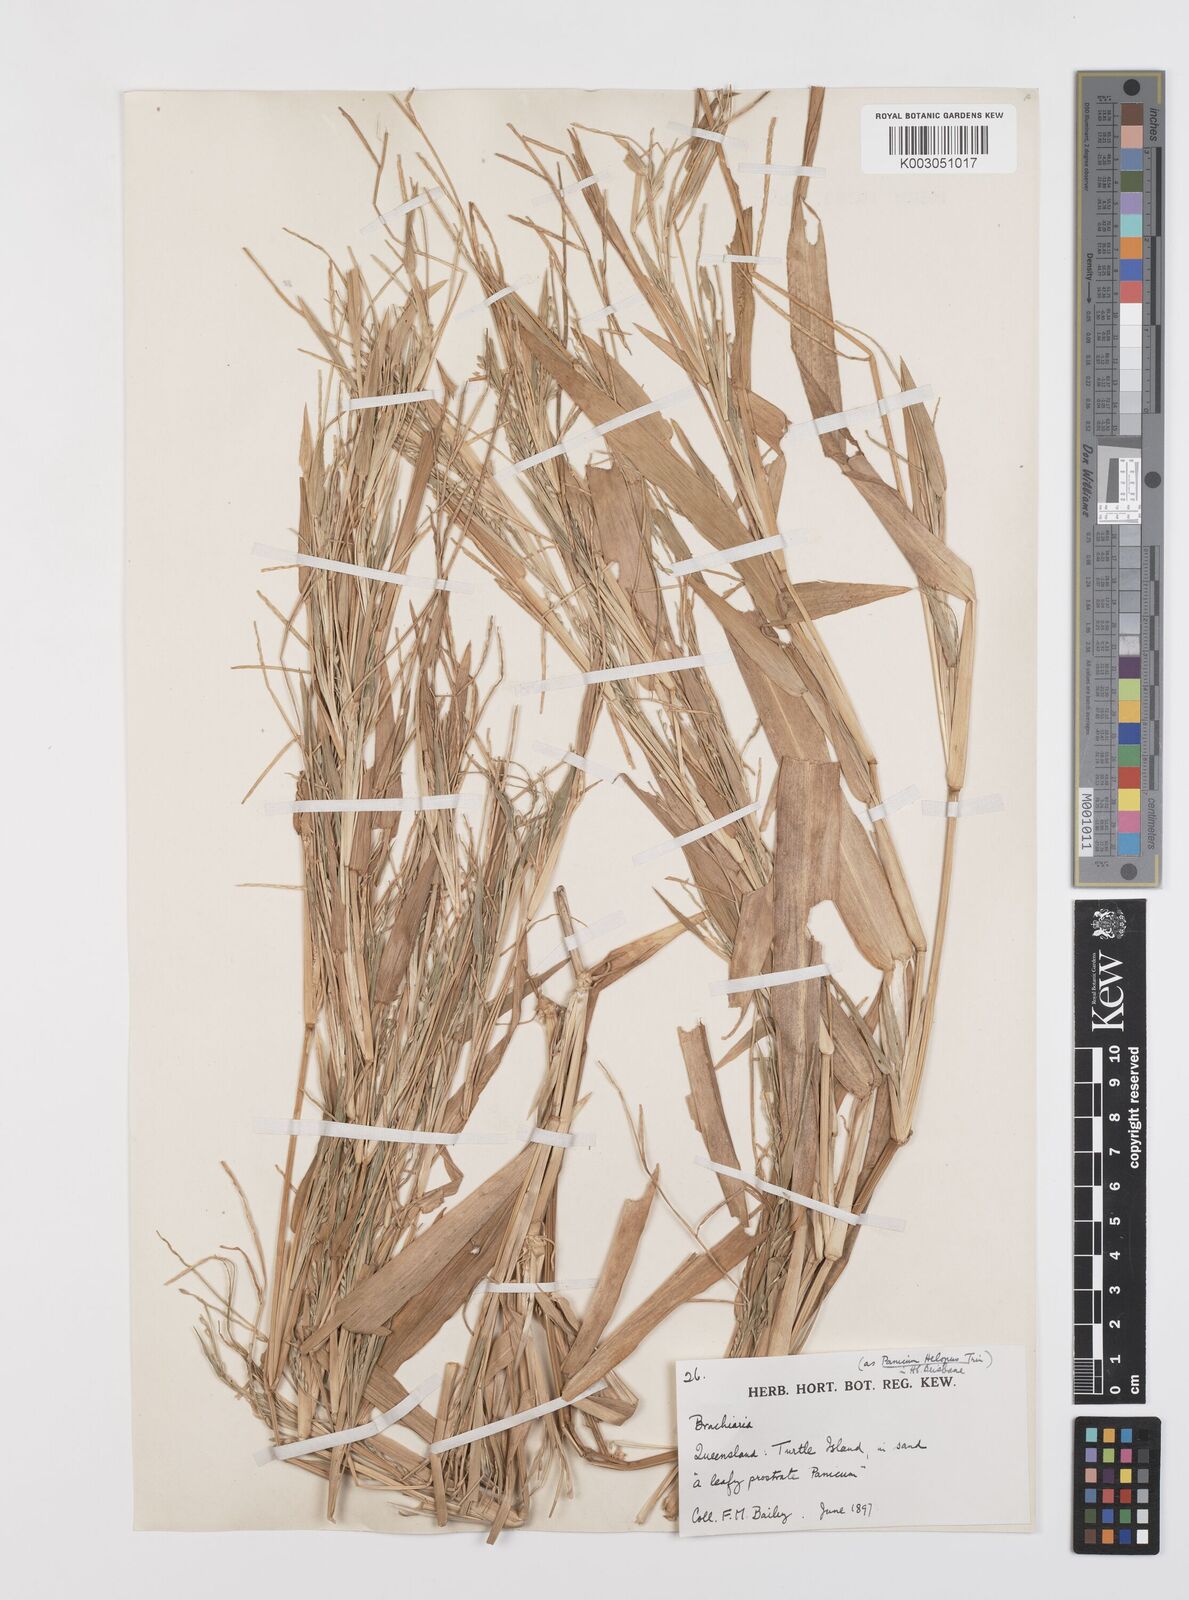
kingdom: Plantae
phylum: Tracheophyta
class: Liliopsida
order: Poales
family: Poaceae
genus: Urochloa
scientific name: Urochloa pubigera
